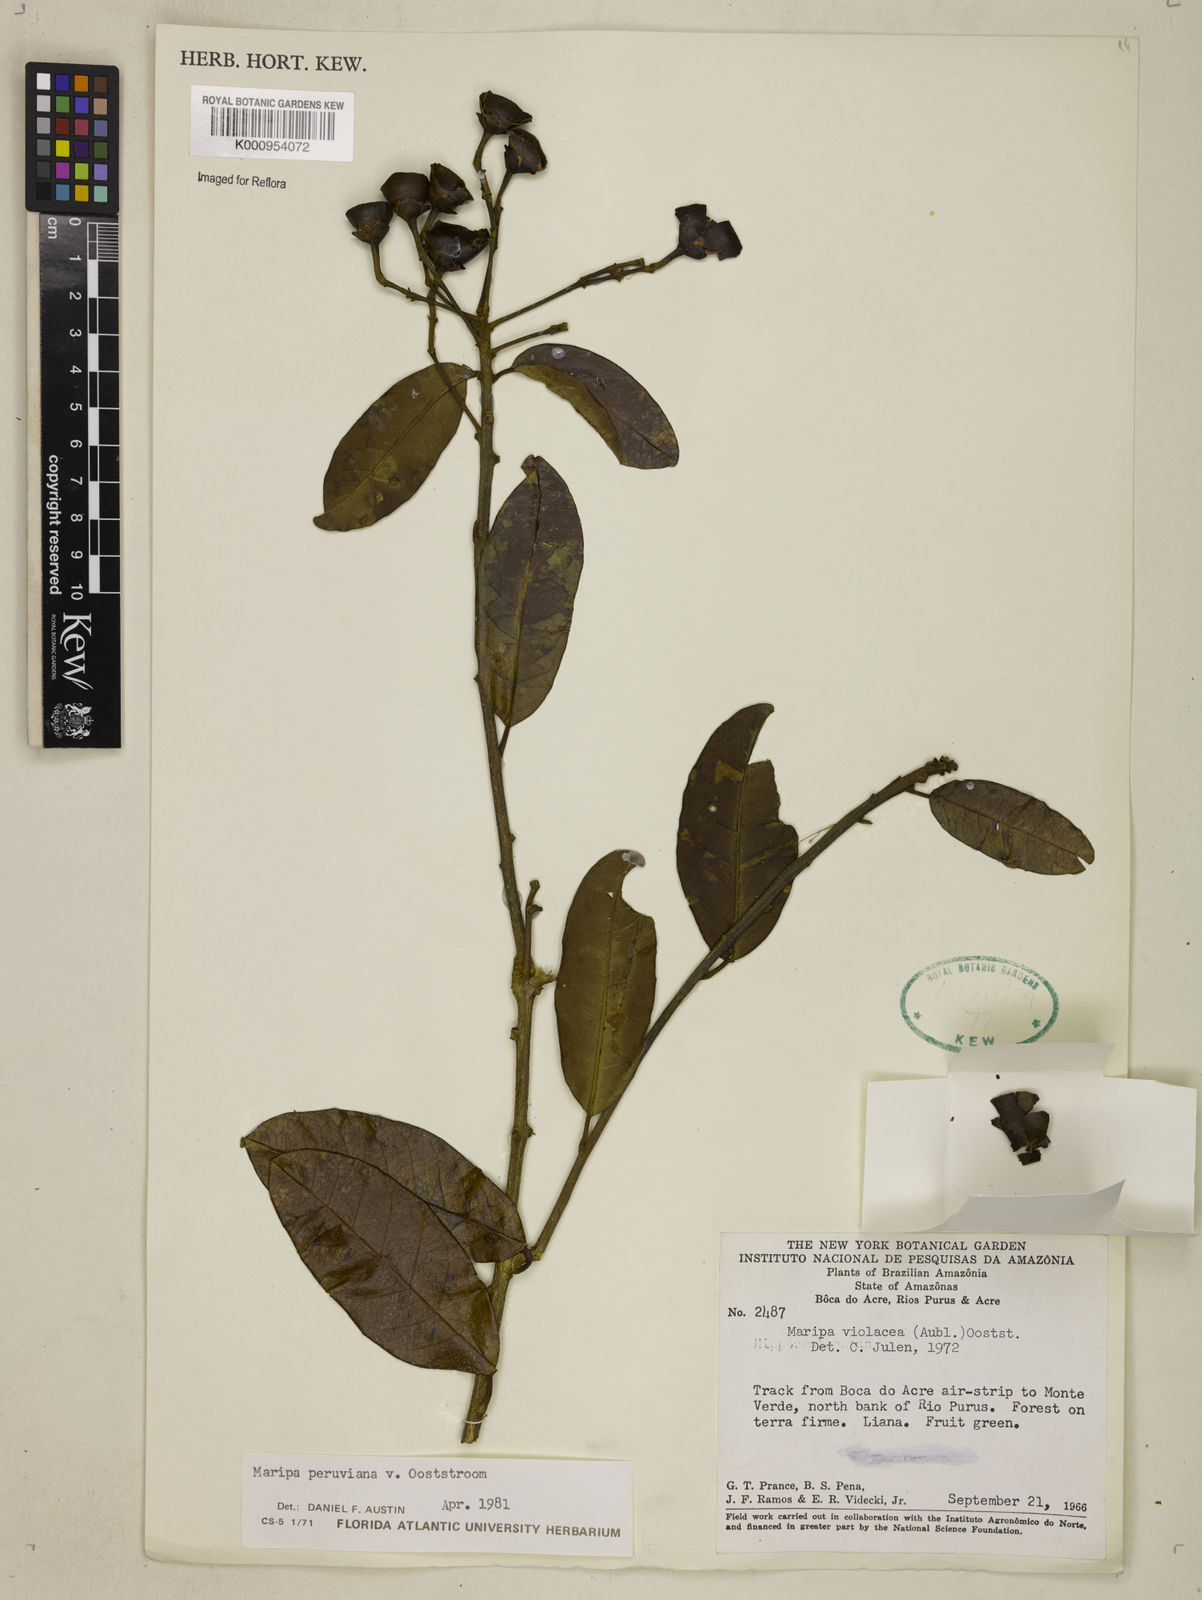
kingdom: Plantae
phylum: Tracheophyta
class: Magnoliopsida
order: Solanales
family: Convolvulaceae
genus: Maripa
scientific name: Maripa paniculata
